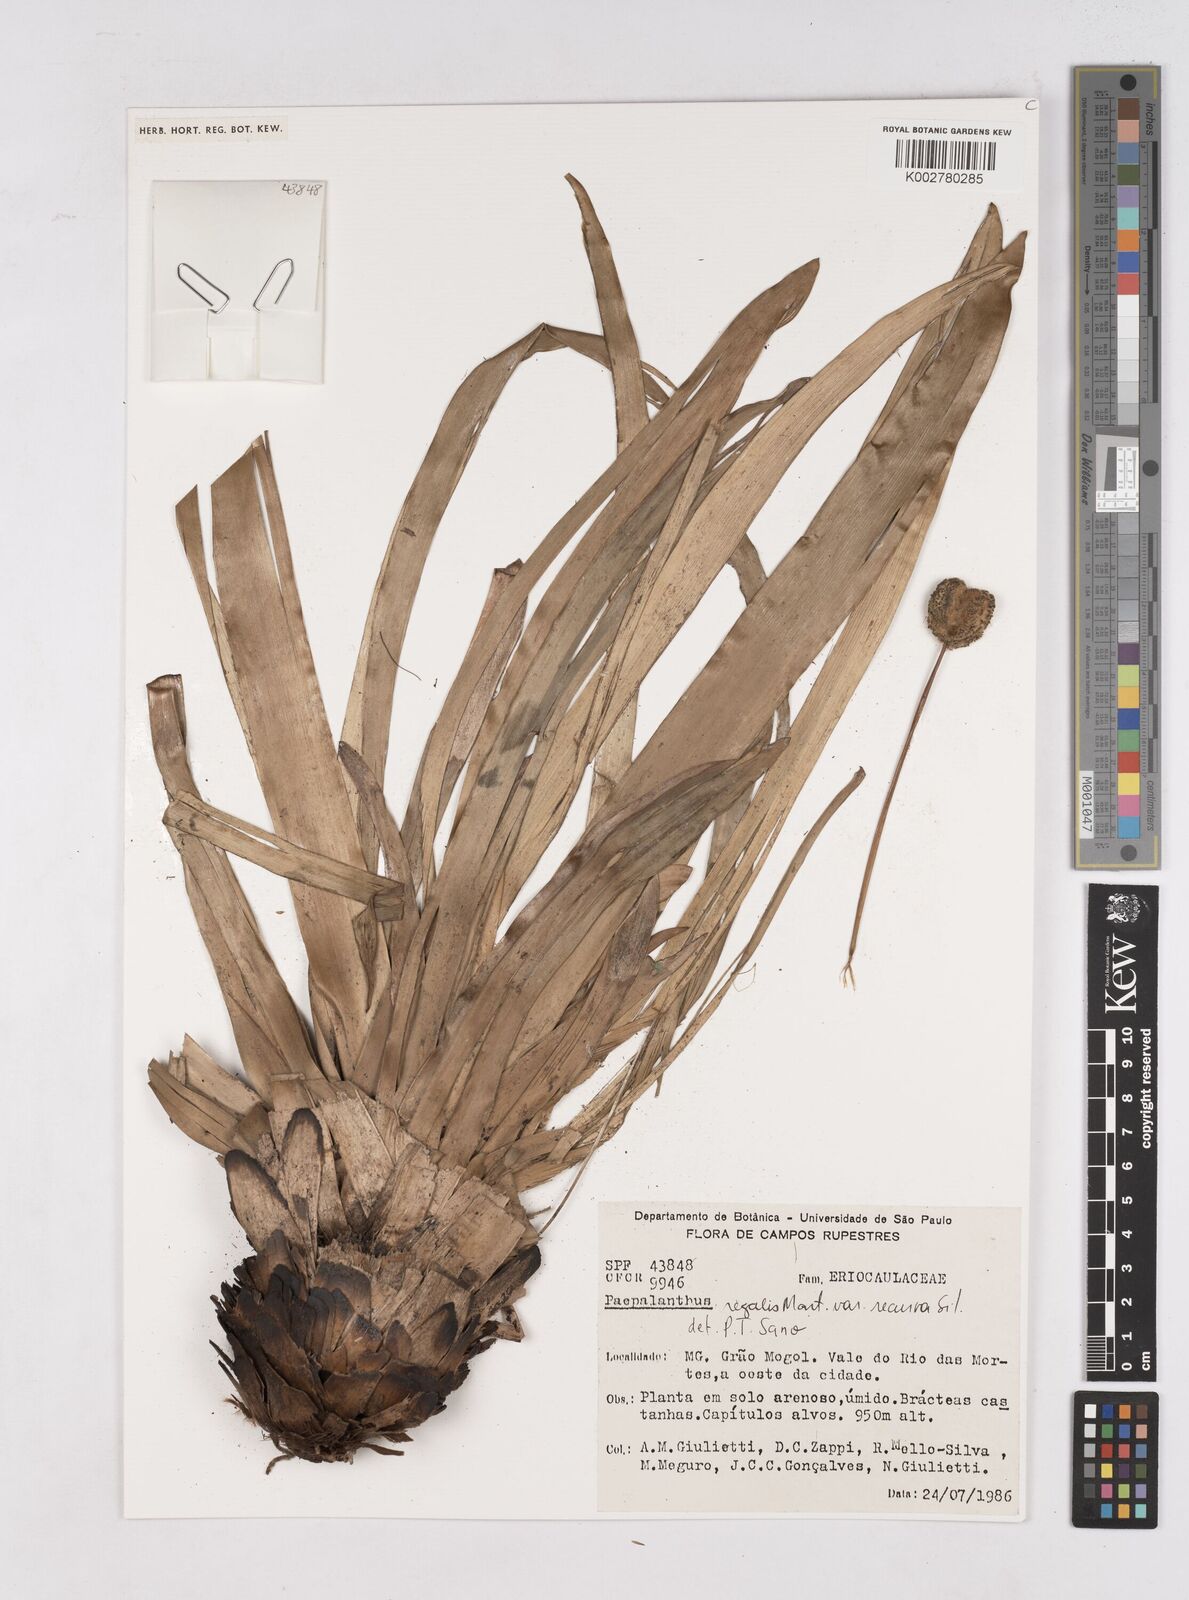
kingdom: Plantae
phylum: Tracheophyta
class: Liliopsida
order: Poales
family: Eriocaulaceae
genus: Paepalanthus
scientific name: Paepalanthus regalis
